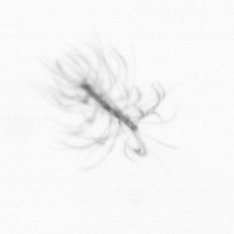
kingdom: Chromista
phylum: Ochrophyta
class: Bacillariophyceae
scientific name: Bacillariophyceae
